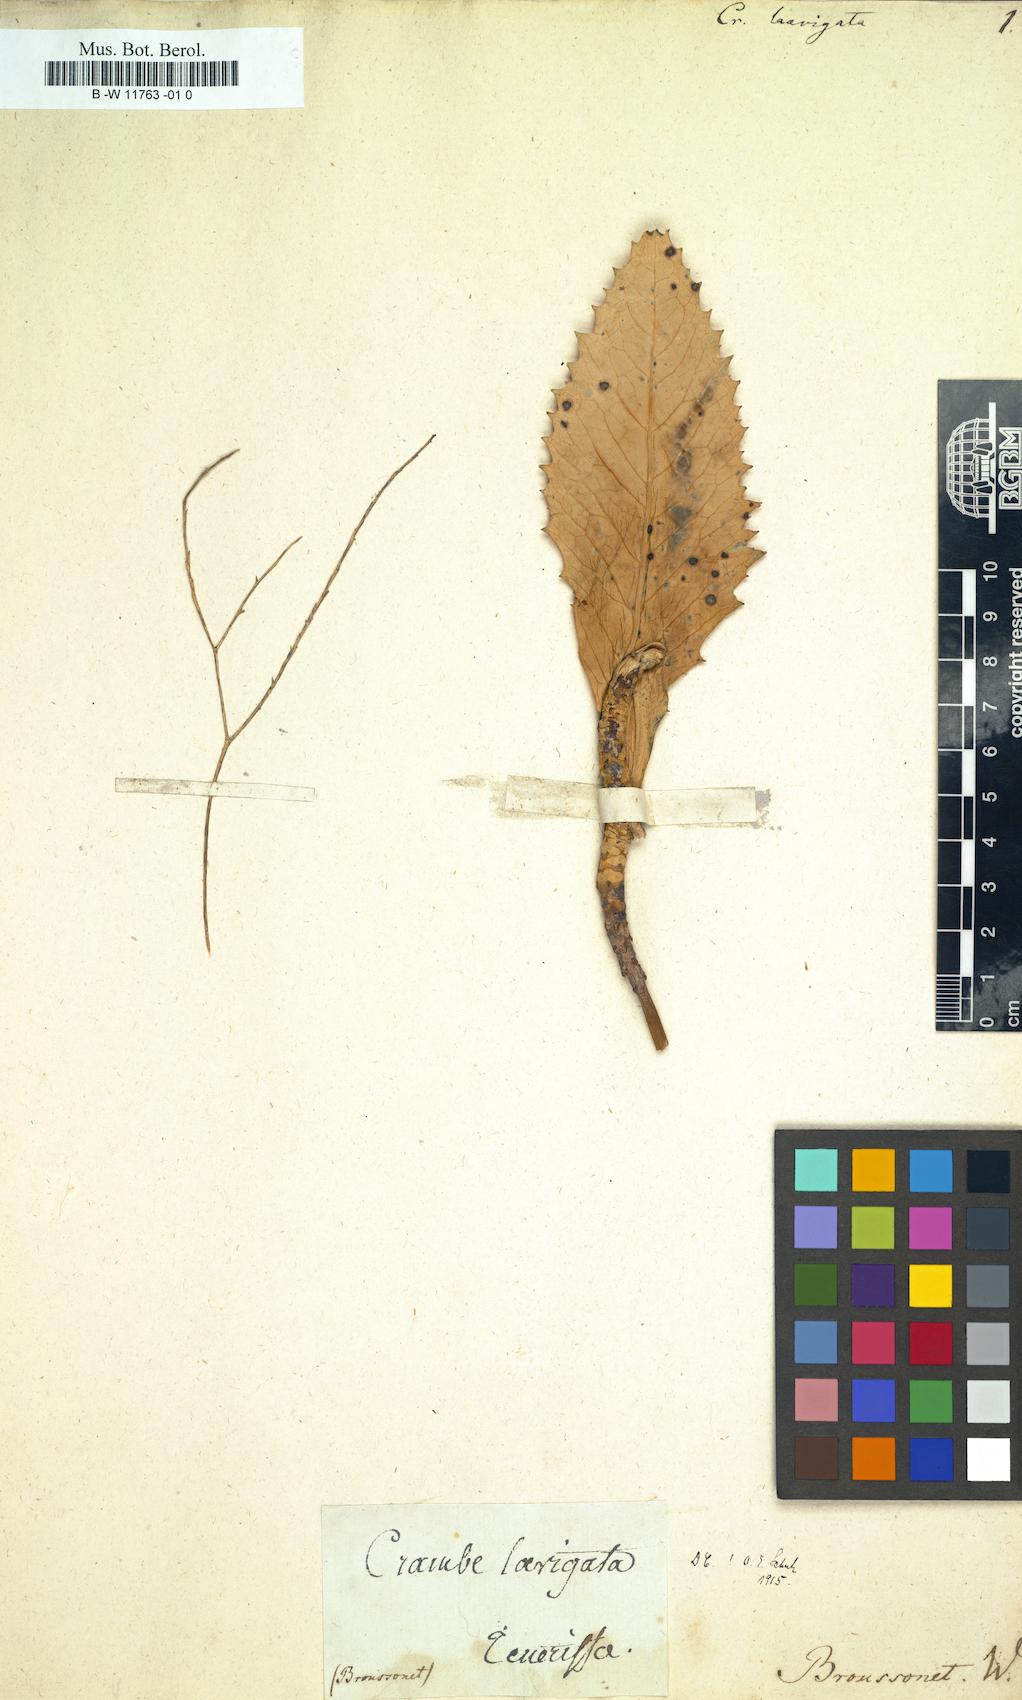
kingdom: Plantae
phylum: Tracheophyta
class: Magnoliopsida
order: Brassicales
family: Brassicaceae
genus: Crambe
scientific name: Crambe laevigata
